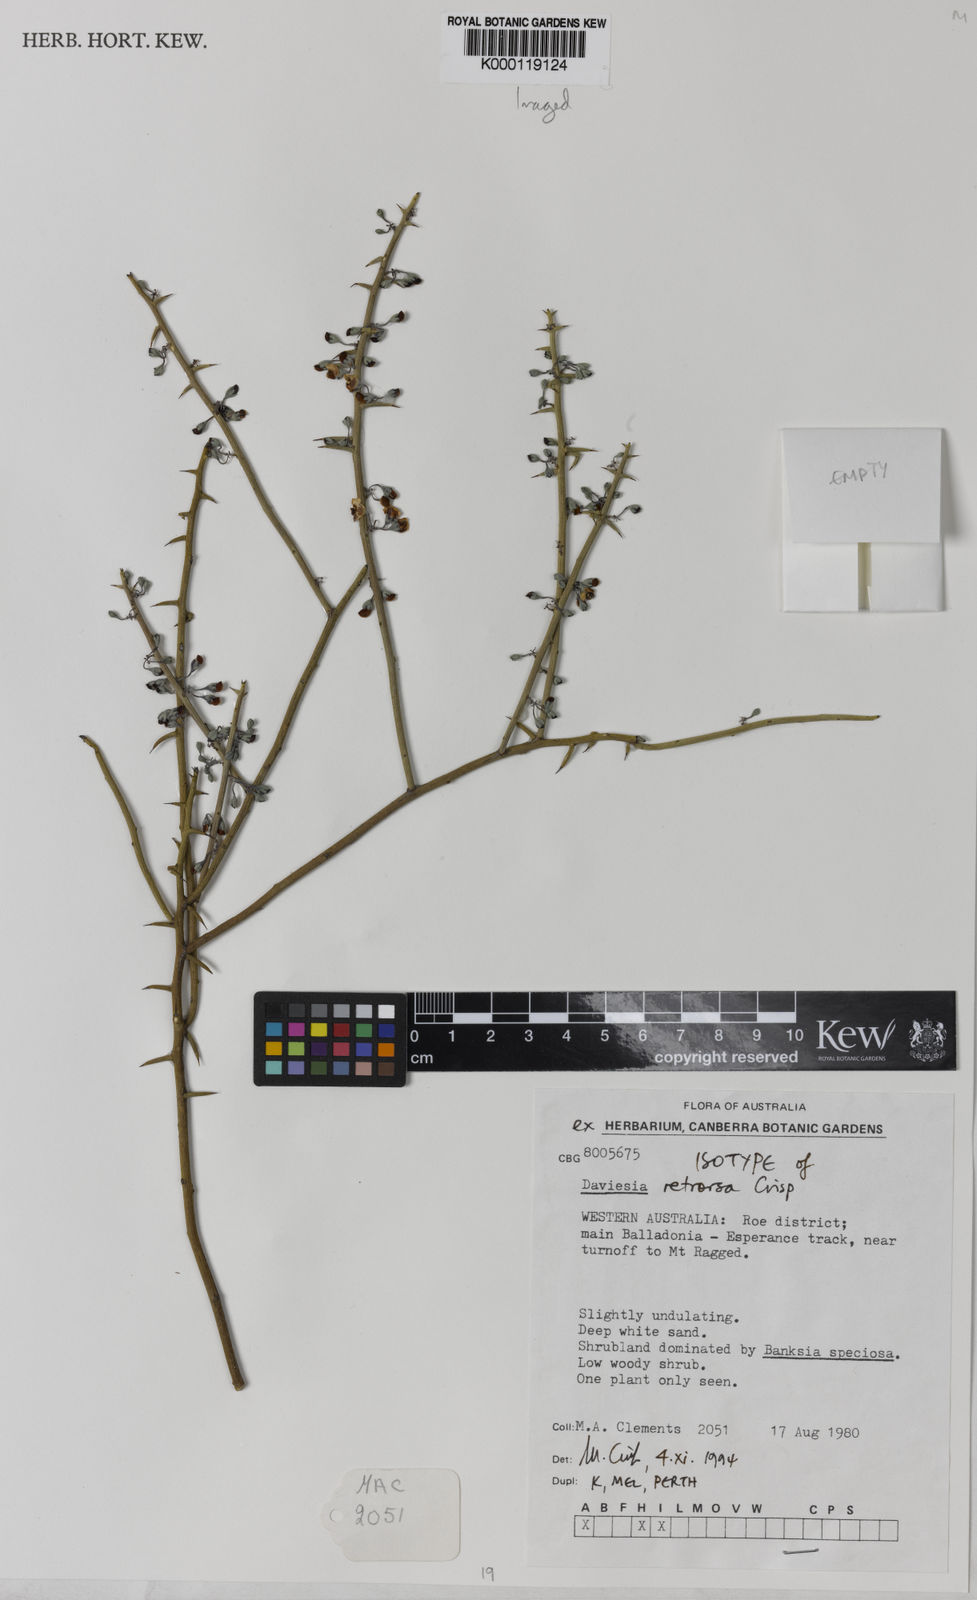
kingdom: Plantae
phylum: Tracheophyta
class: Magnoliopsida
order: Fabales
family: Fabaceae
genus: Daviesia
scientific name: Daviesia retrorsa
